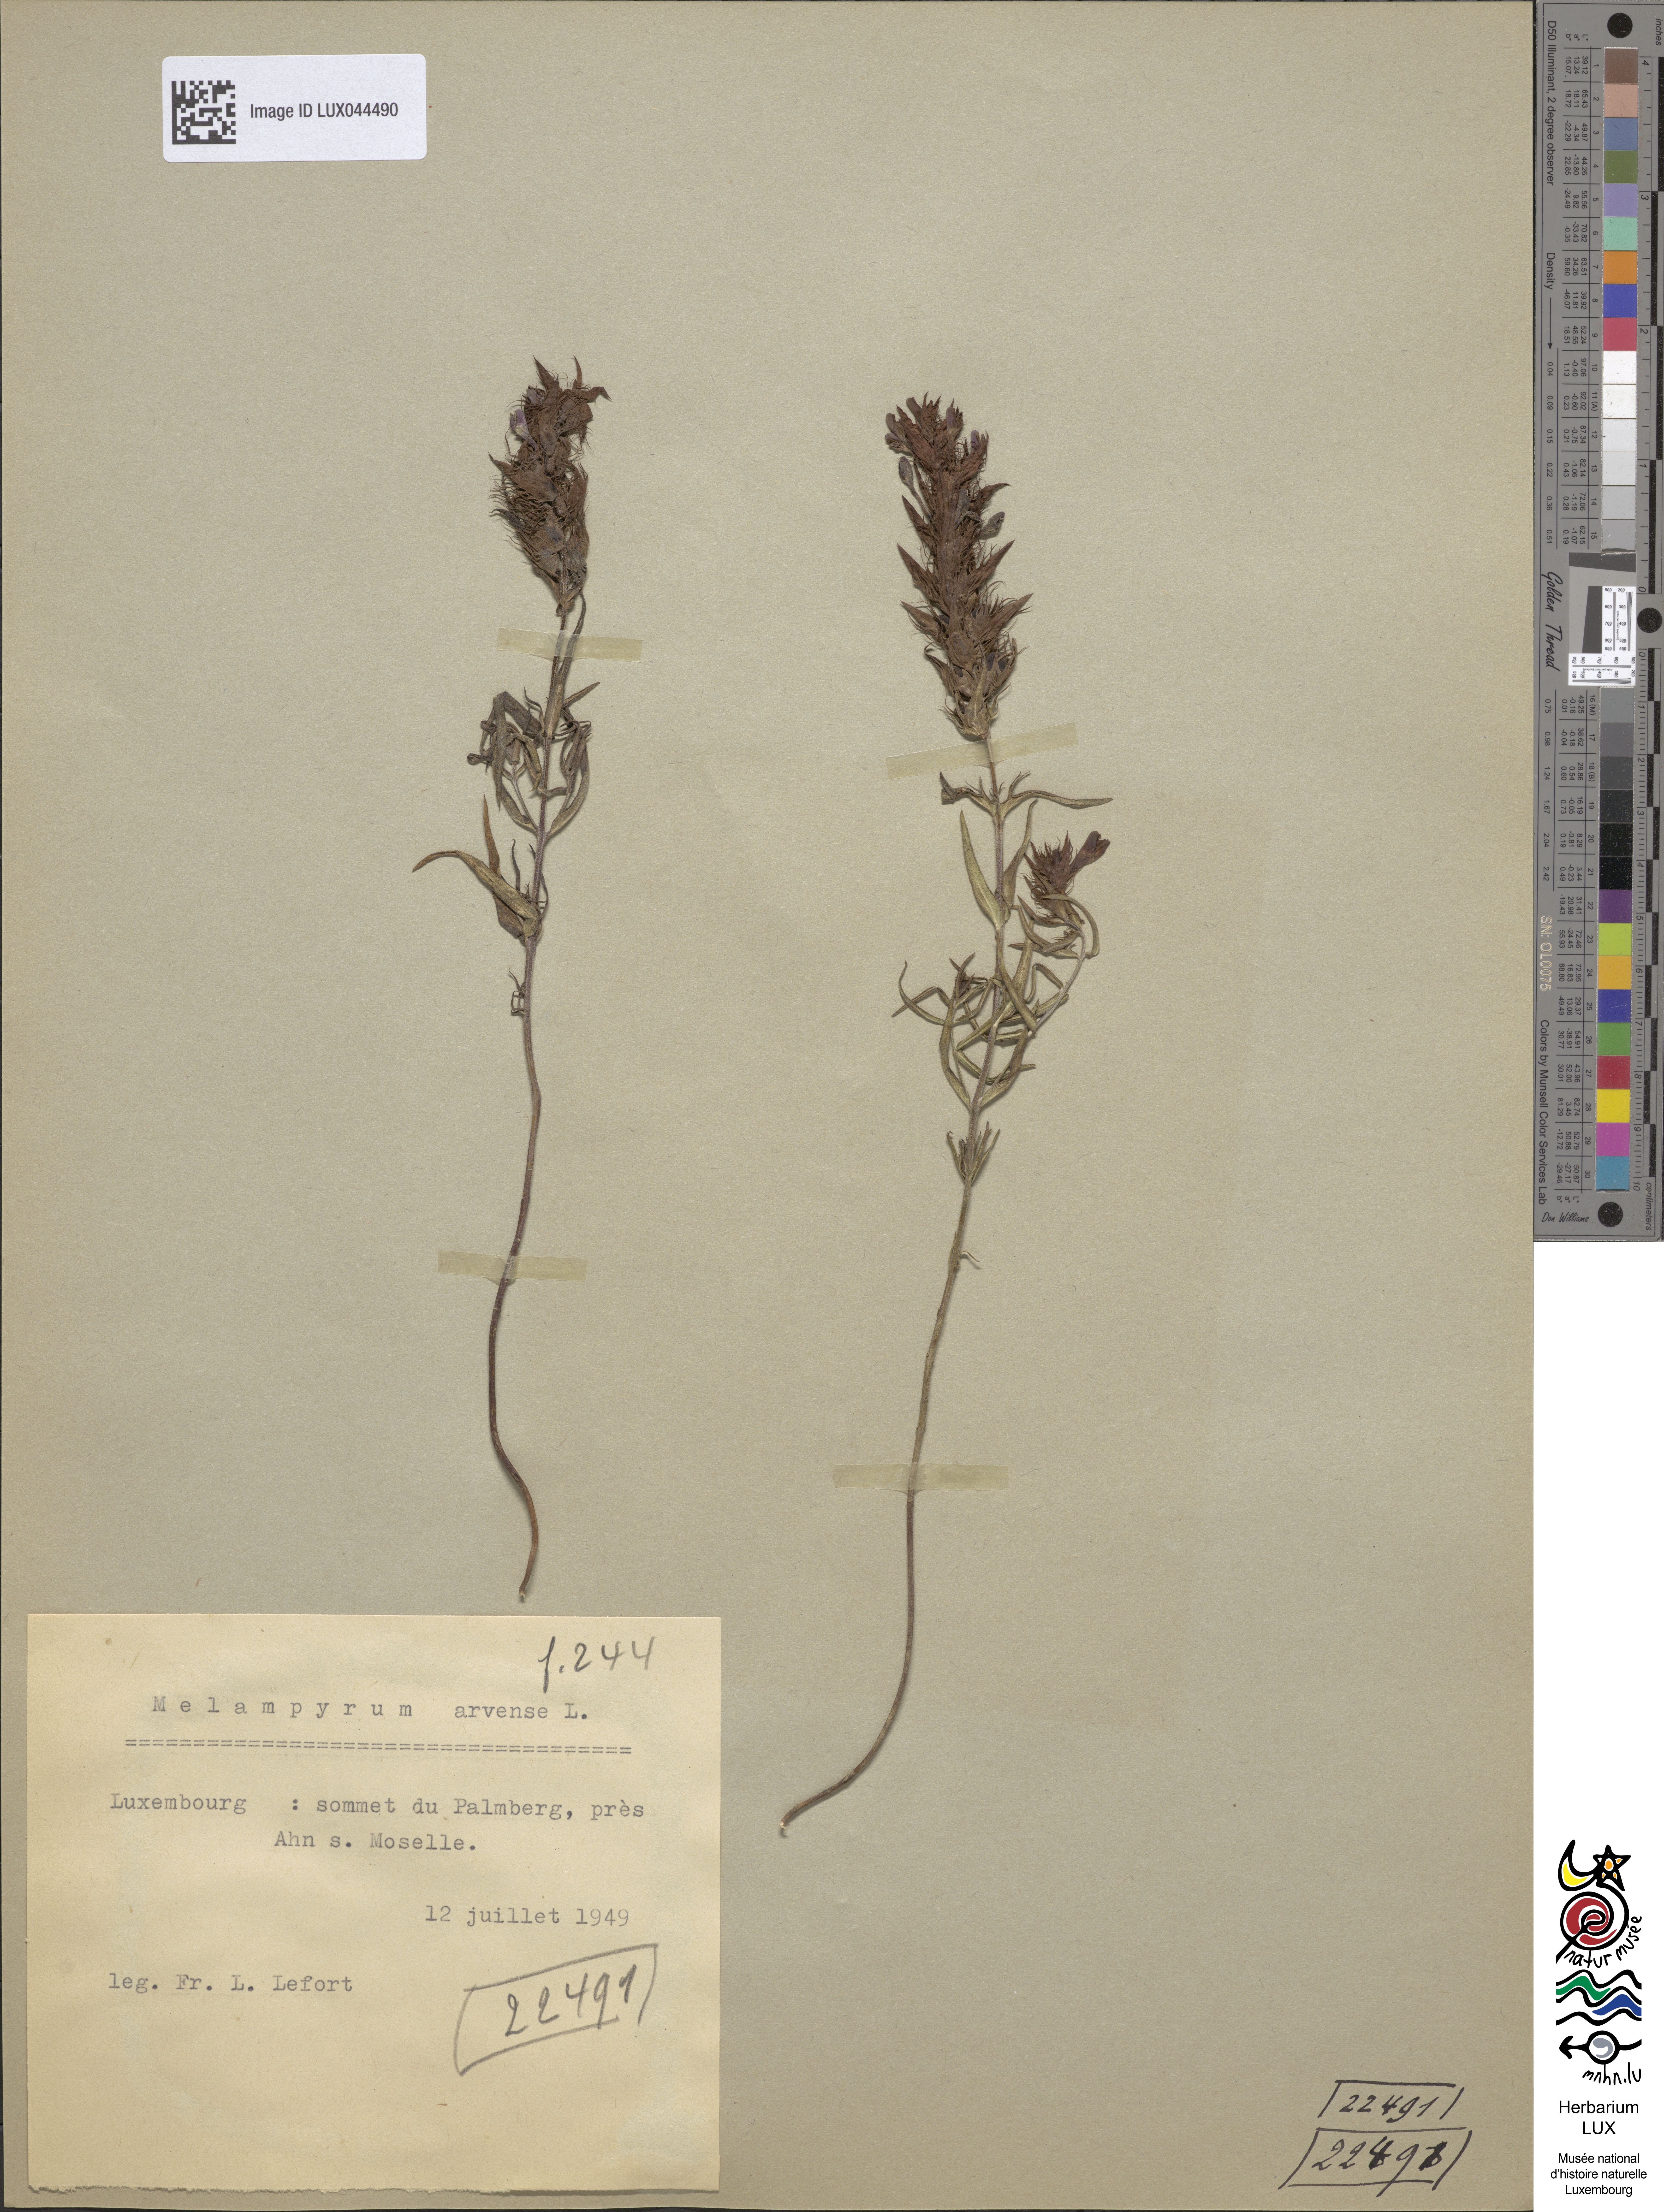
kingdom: Plantae
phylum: Tracheophyta
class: Magnoliopsida
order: Lamiales
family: Orobanchaceae
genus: Melampyrum
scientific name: Melampyrum arvense
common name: Field cow-wheat
